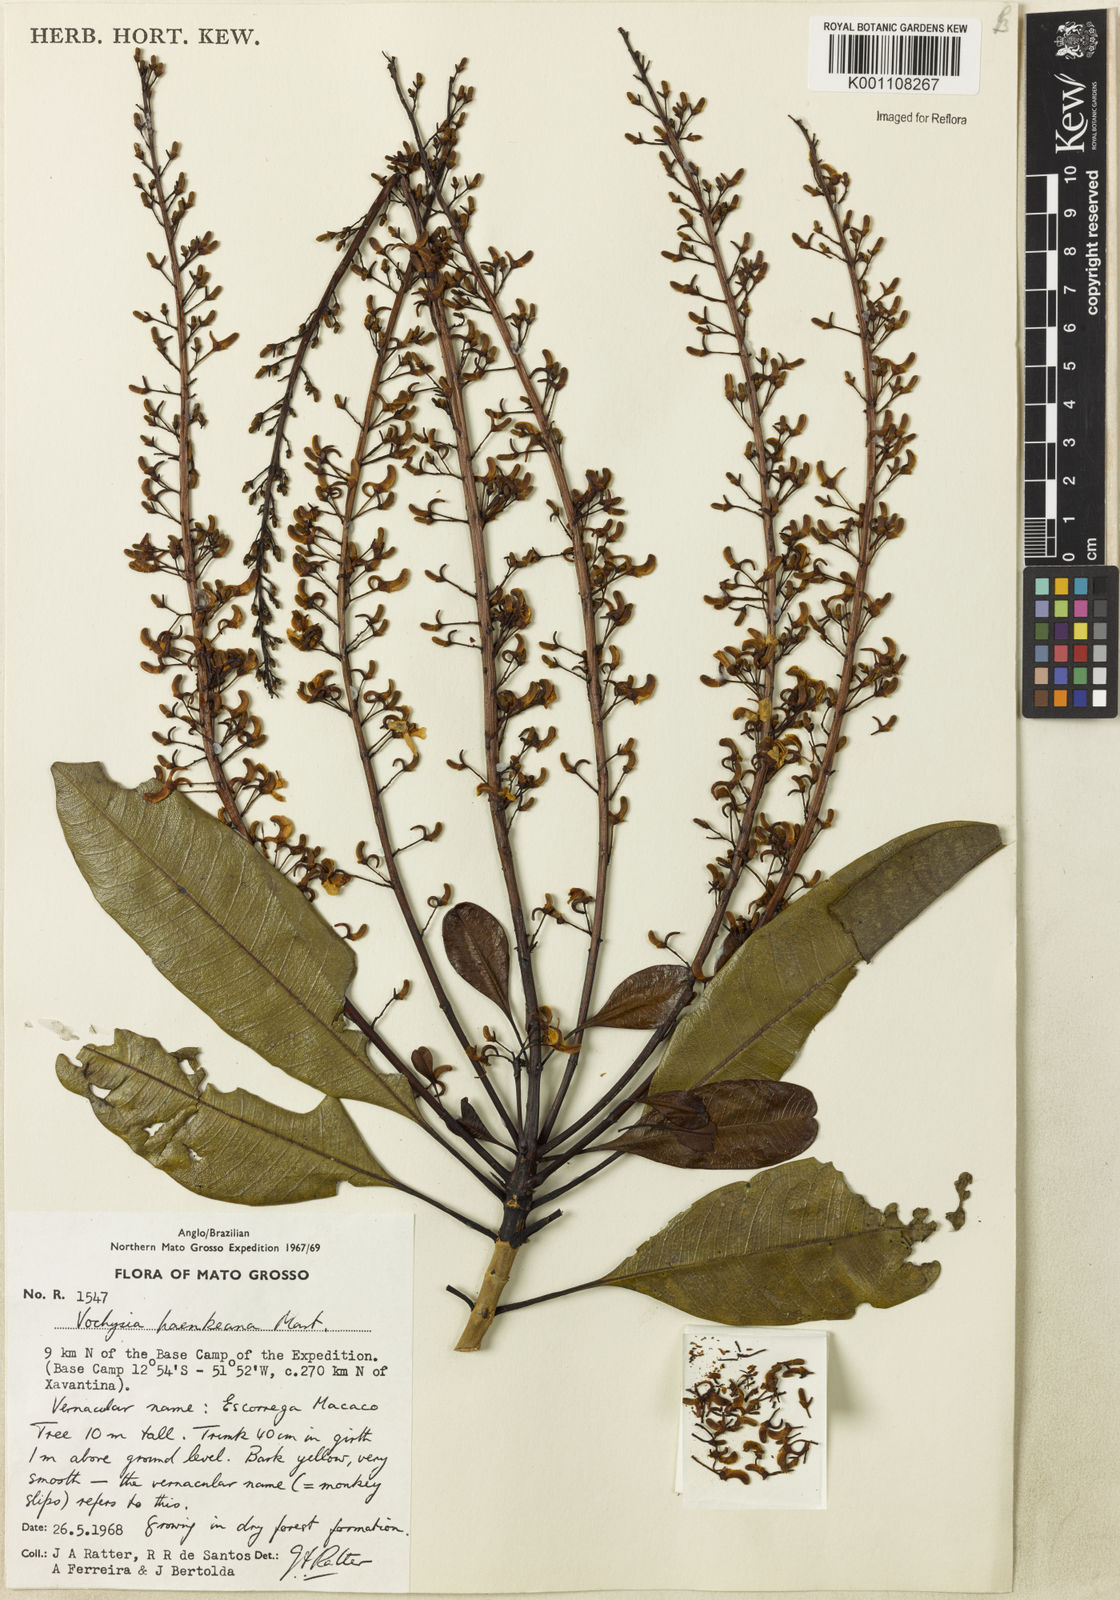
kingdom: Plantae
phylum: Tracheophyta
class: Magnoliopsida
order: Myrtales
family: Vochysiaceae
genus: Vochysia
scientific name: Vochysia haenkeana
